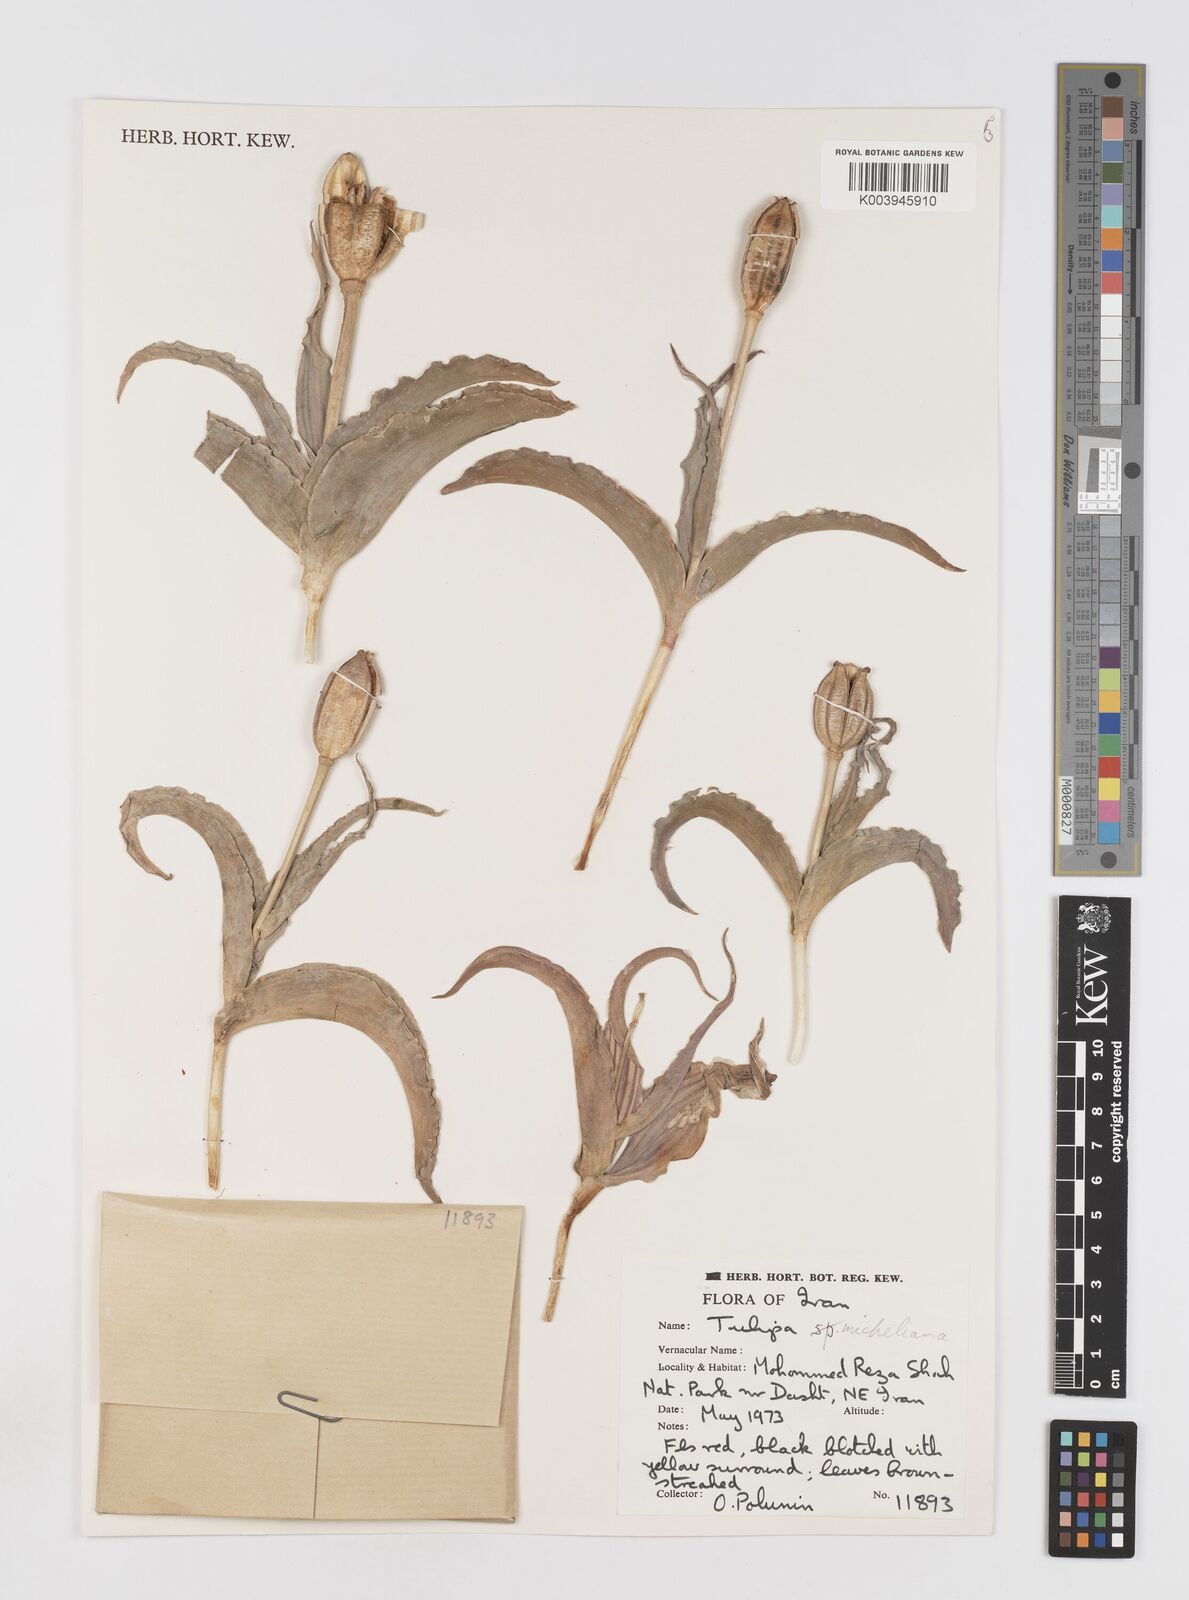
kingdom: Plantae
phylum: Tracheophyta
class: Liliopsida
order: Liliales
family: Liliaceae
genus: Tulipa
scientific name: Tulipa undulatifolia
